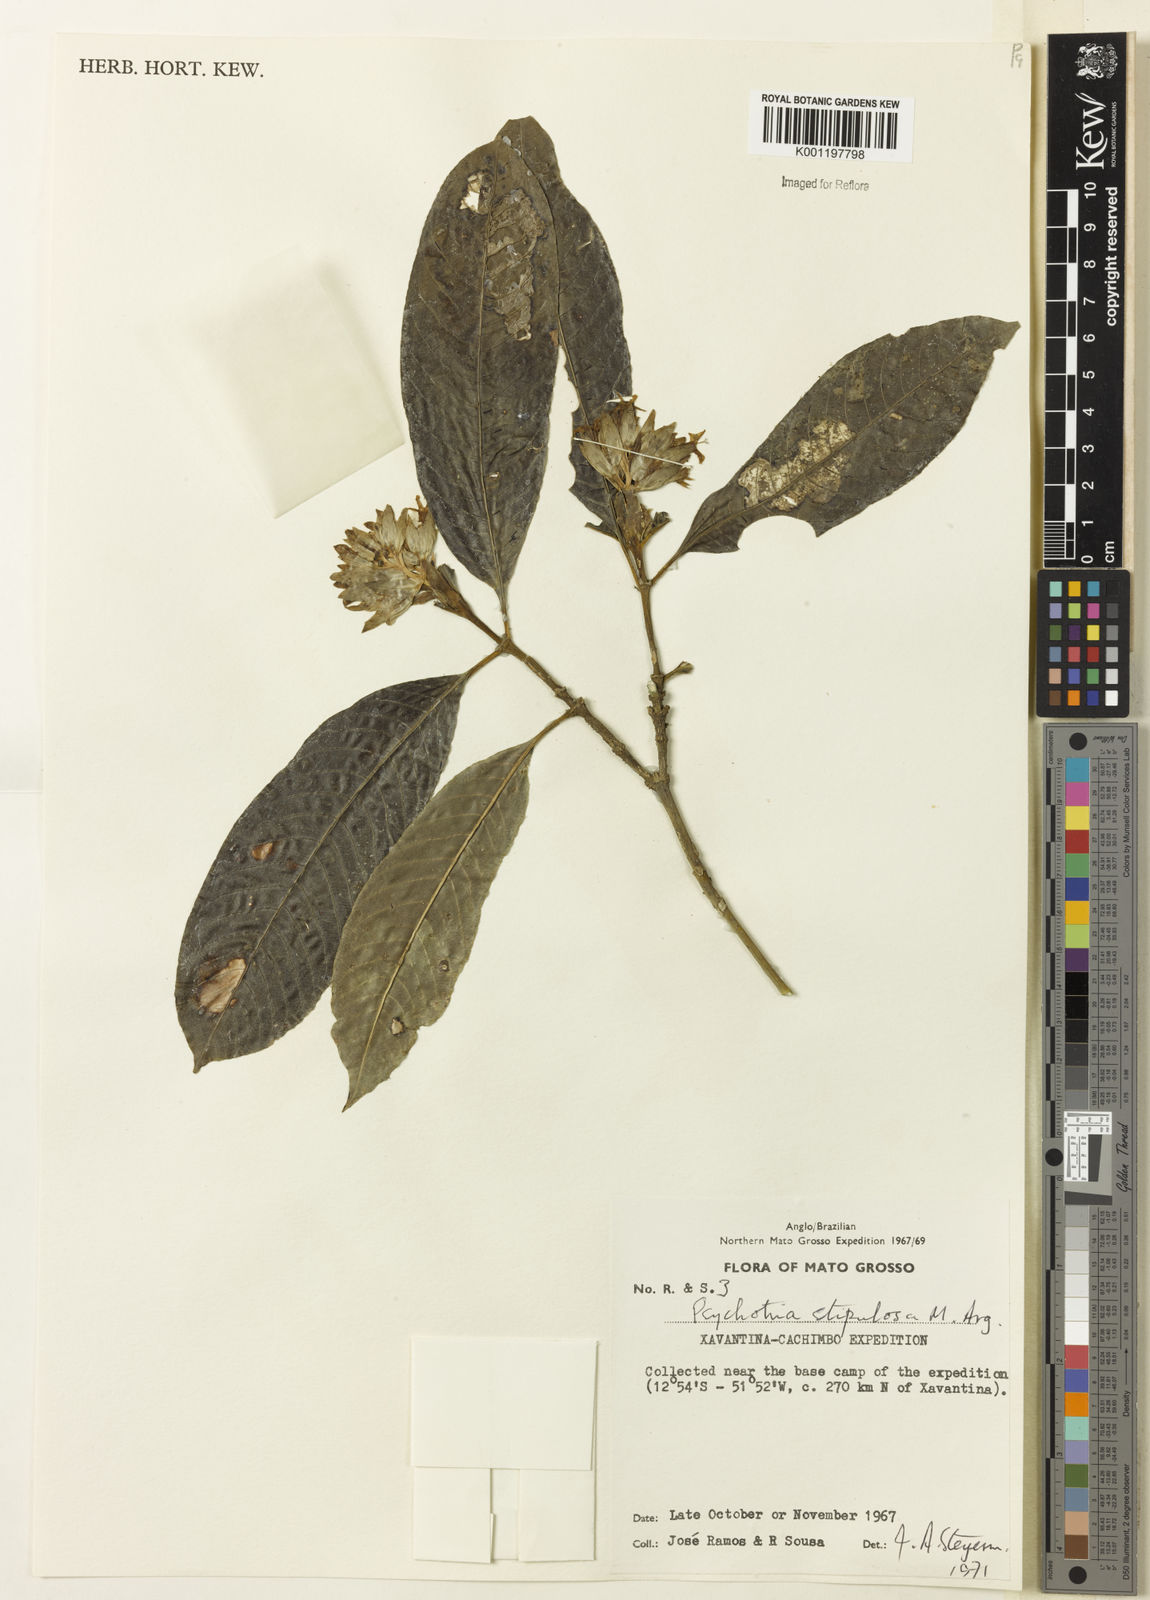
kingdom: Plantae
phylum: Tracheophyta
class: Magnoliopsida
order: Gentianales
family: Rubiaceae
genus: Psychotria
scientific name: Psychotria
